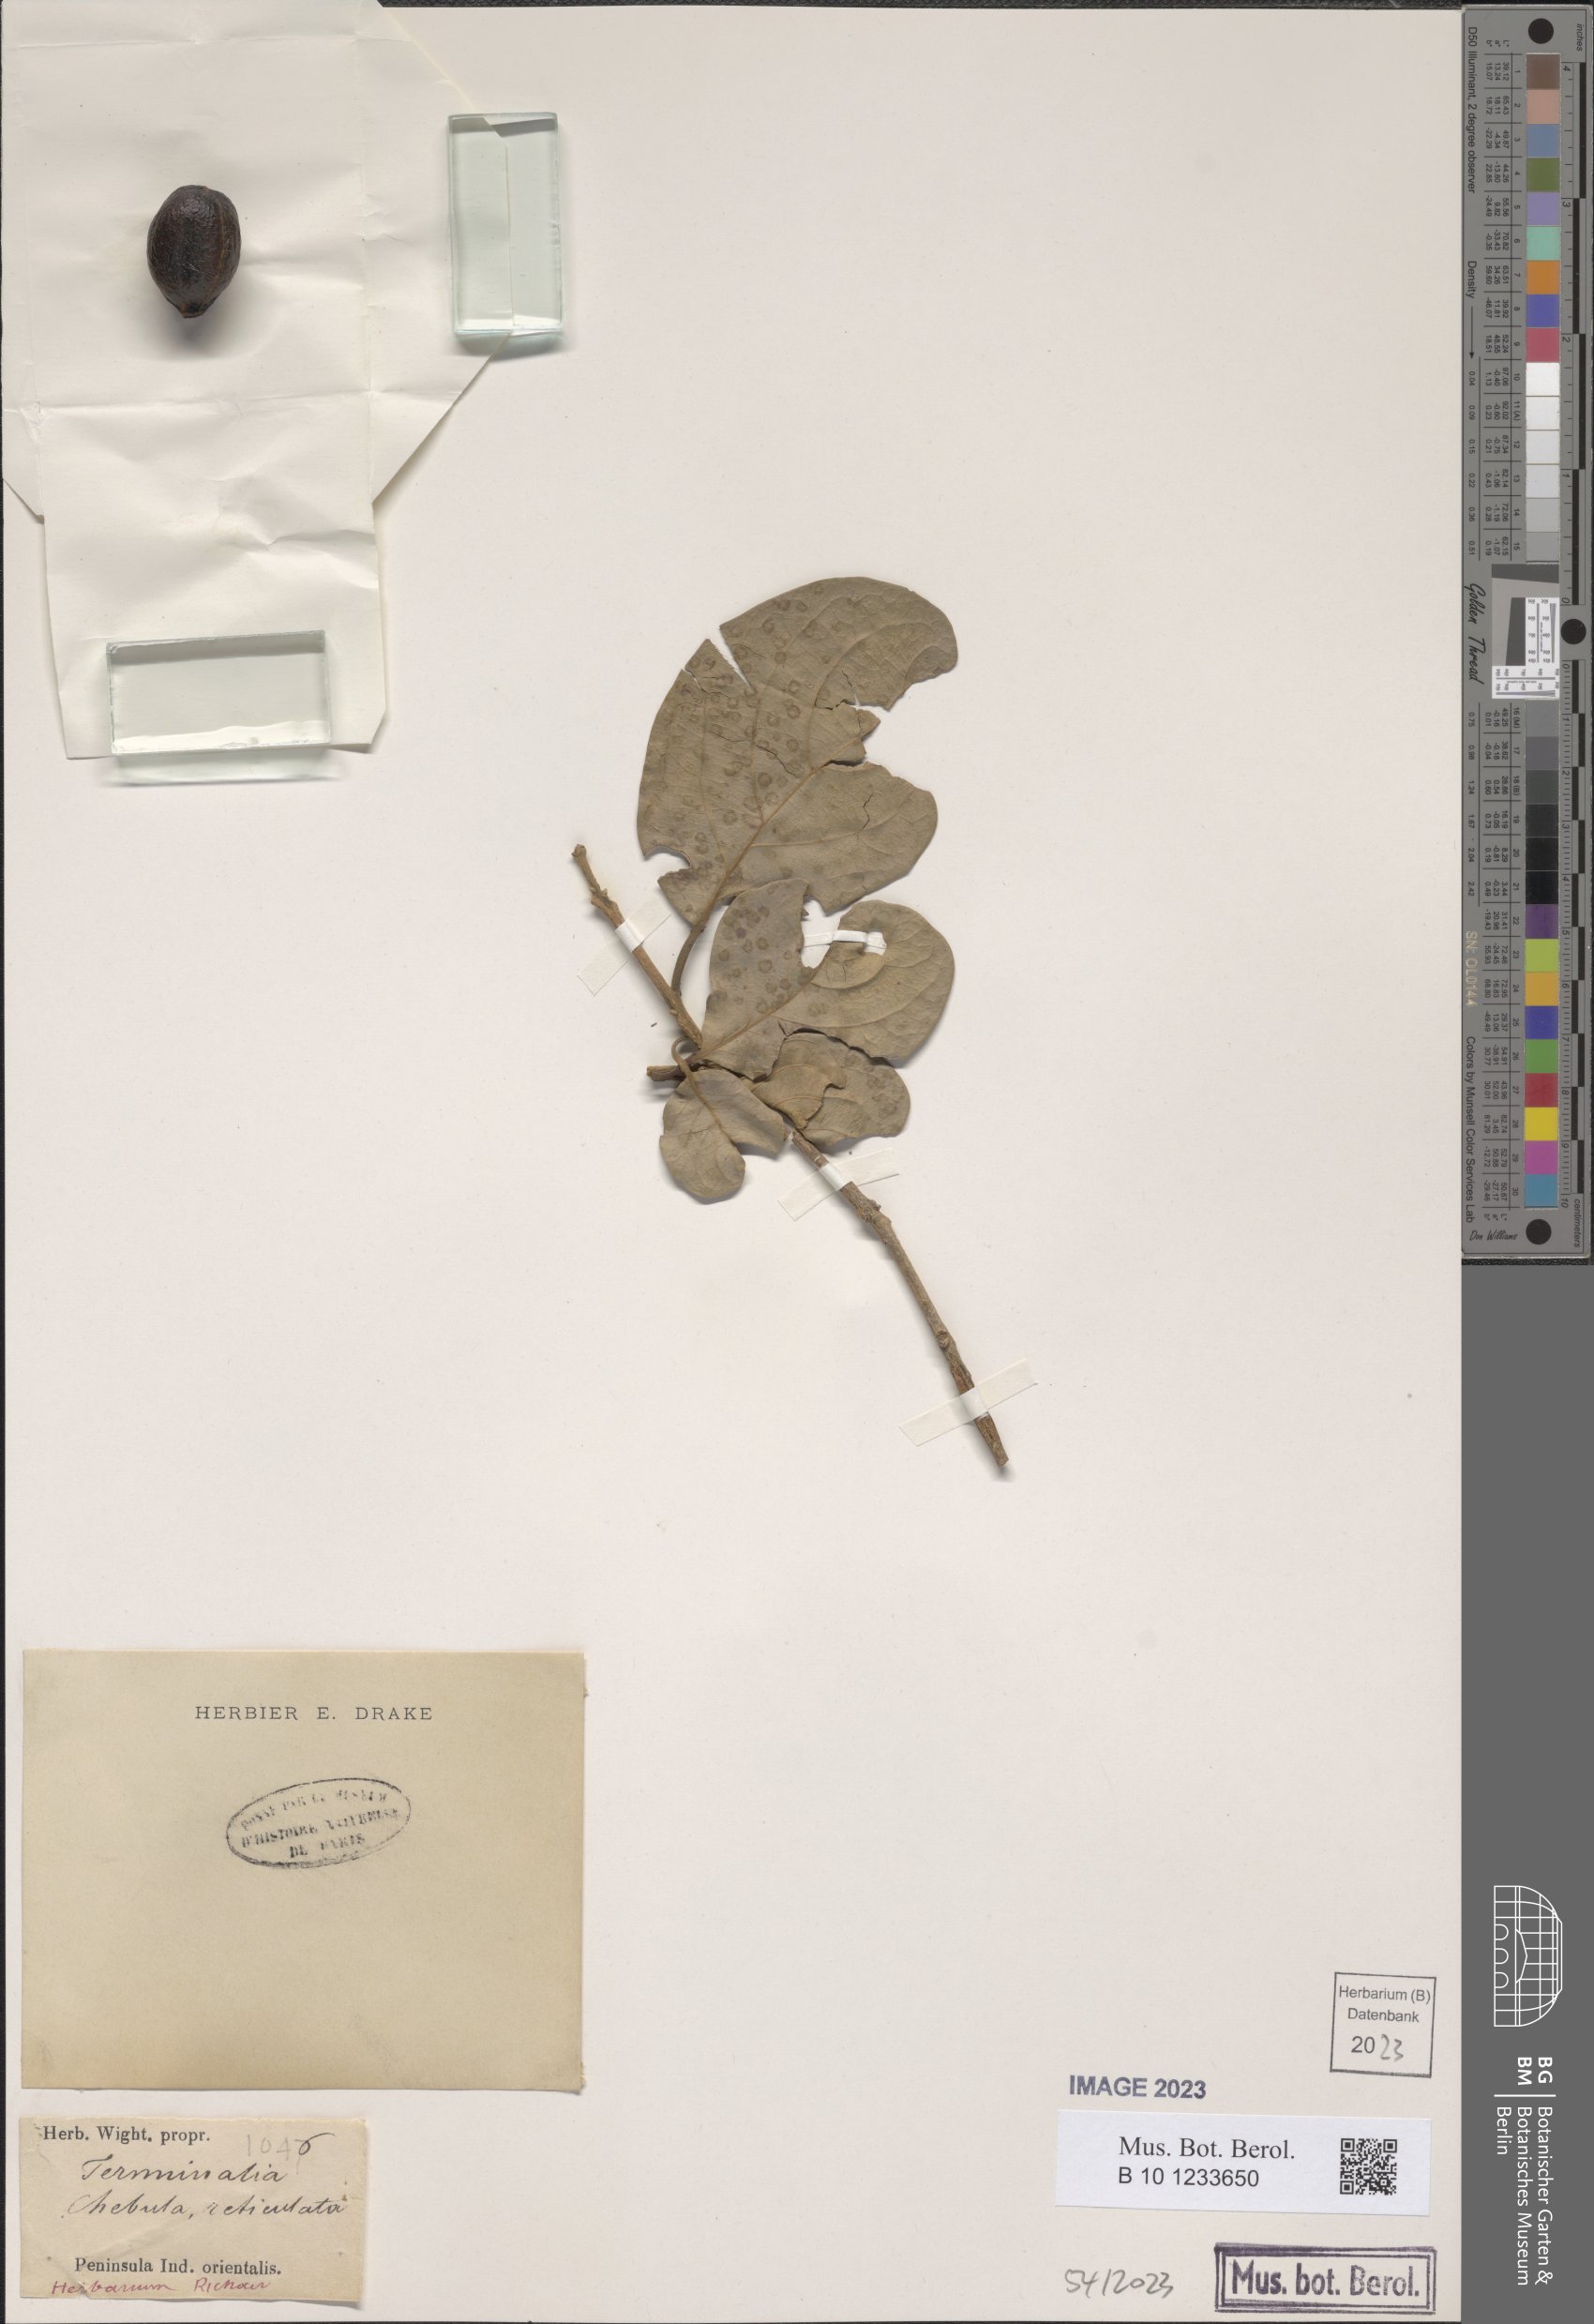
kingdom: Plantae
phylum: Tracheophyta
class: Magnoliopsida
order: Myrtales
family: Combretaceae
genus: Terminalia
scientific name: Terminalia chebula
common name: Myrobalan
